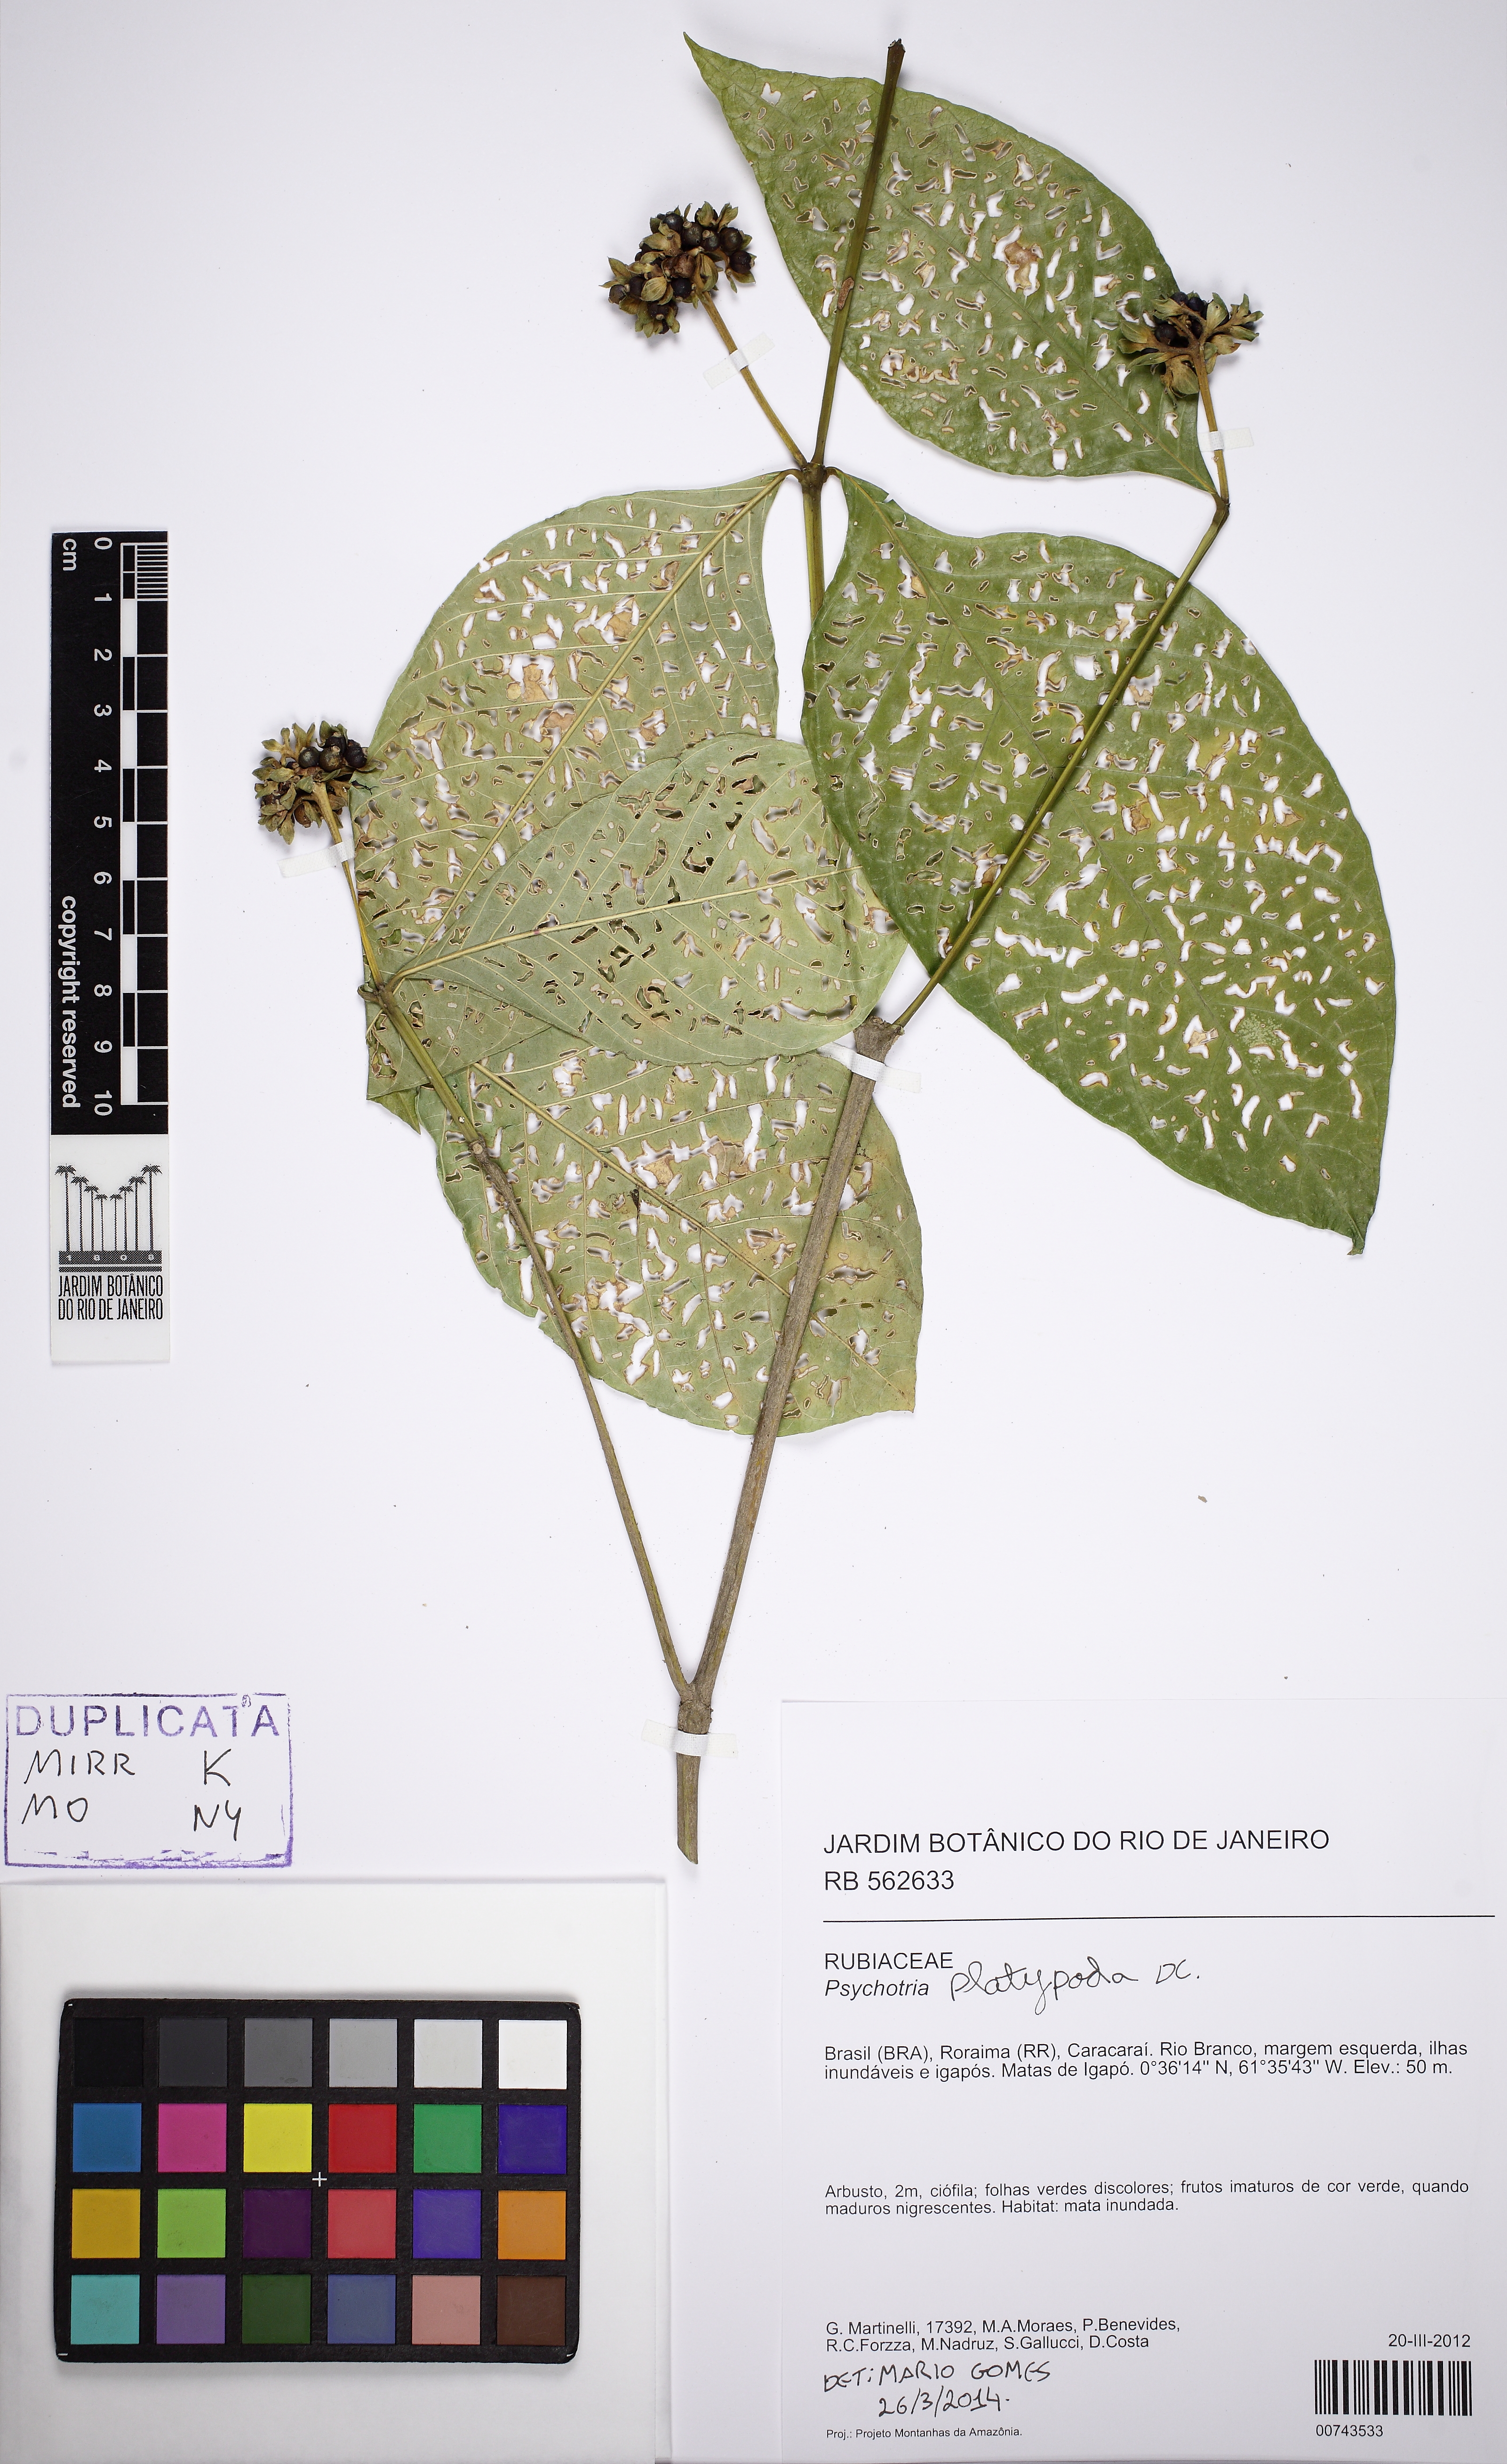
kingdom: Plantae
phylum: Tracheophyta
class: Magnoliopsida
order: Gentianales
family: Rubiaceae
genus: Palicourea
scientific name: Palicourea dichotoma
